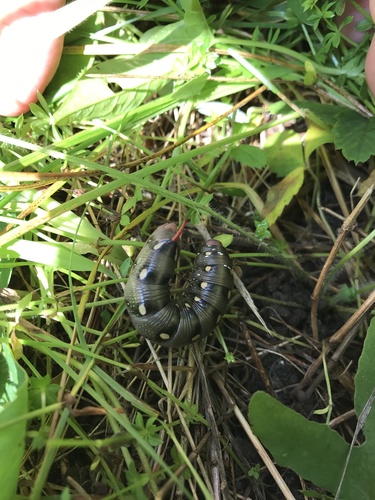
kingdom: Animalia
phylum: Arthropoda
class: Insecta
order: Lepidoptera
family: Sphingidae
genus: Hyles
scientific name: Hyles gallii
